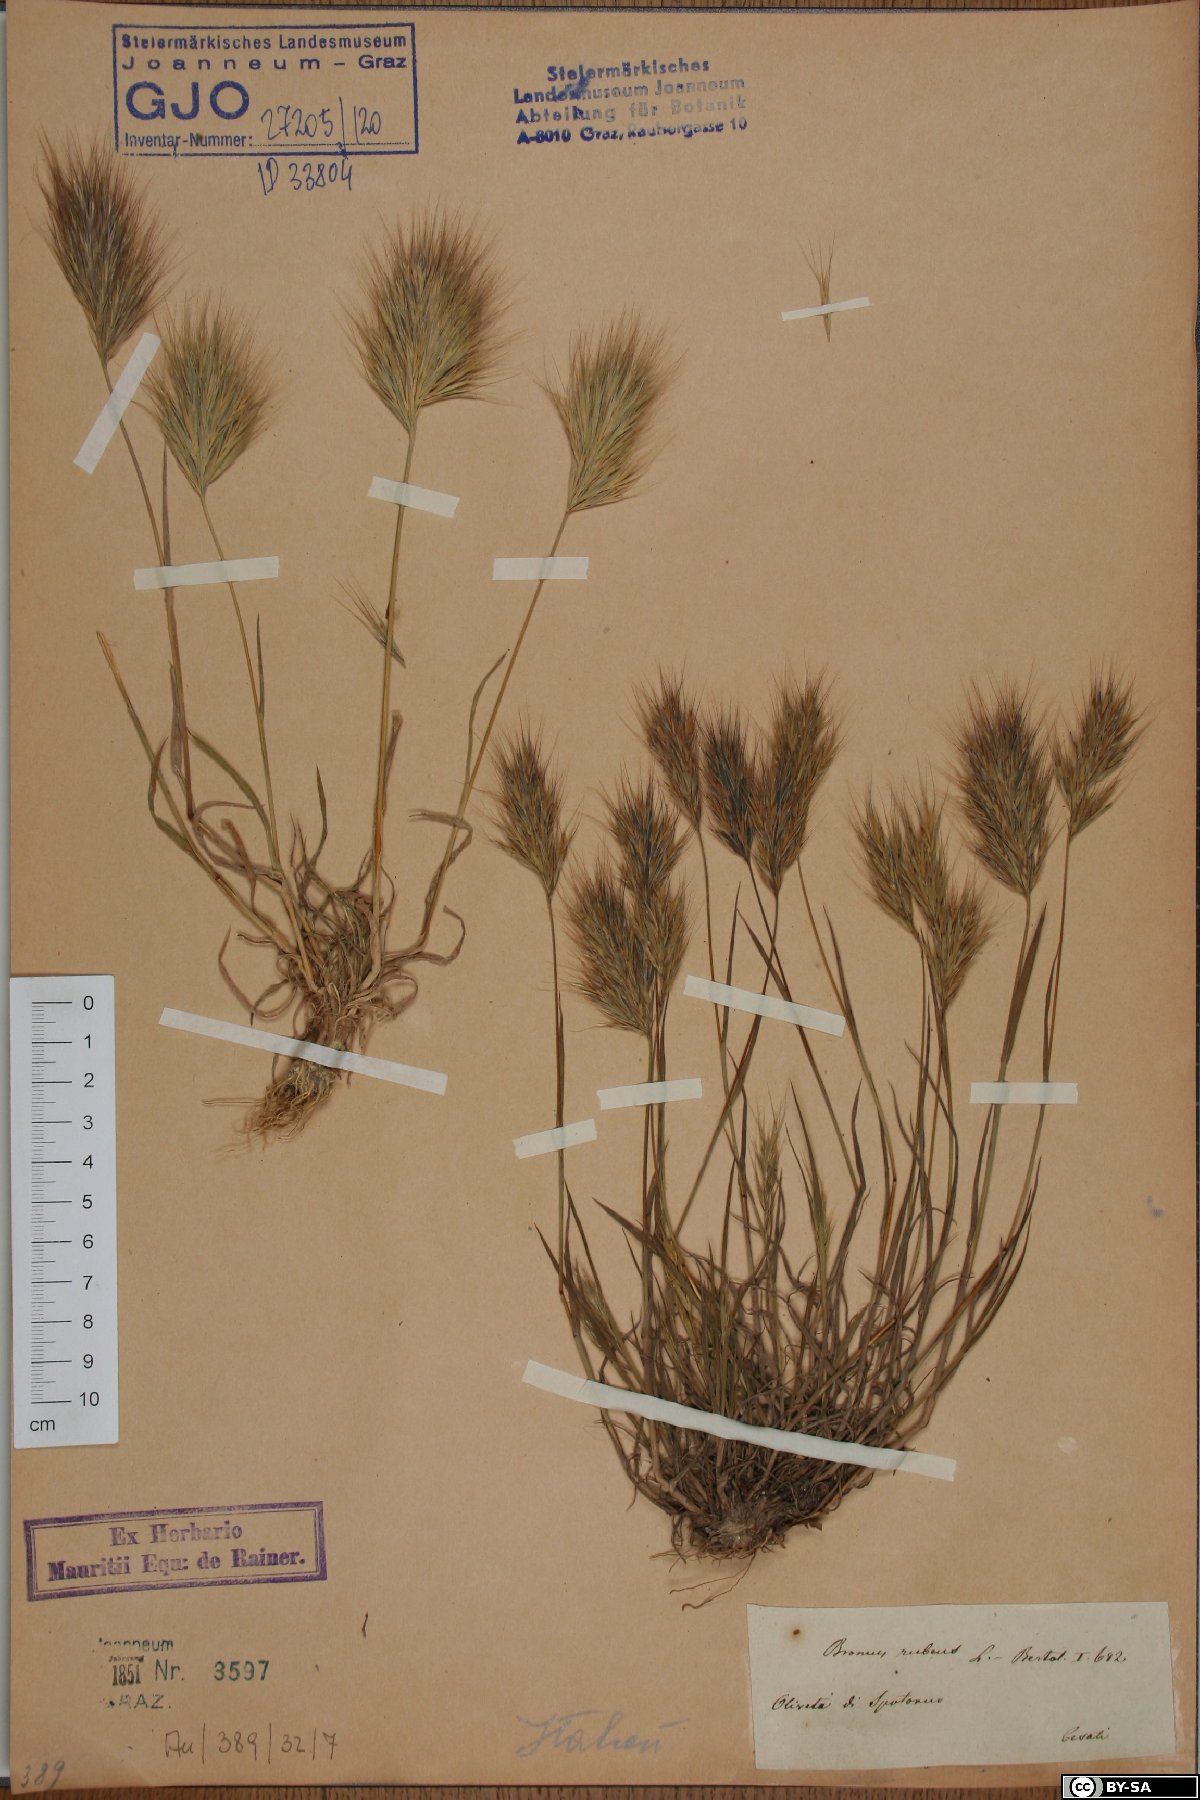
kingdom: Plantae
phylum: Tracheophyta
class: Liliopsida
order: Poales
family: Poaceae
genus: Bromus
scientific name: Bromus rubens
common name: Red brome
